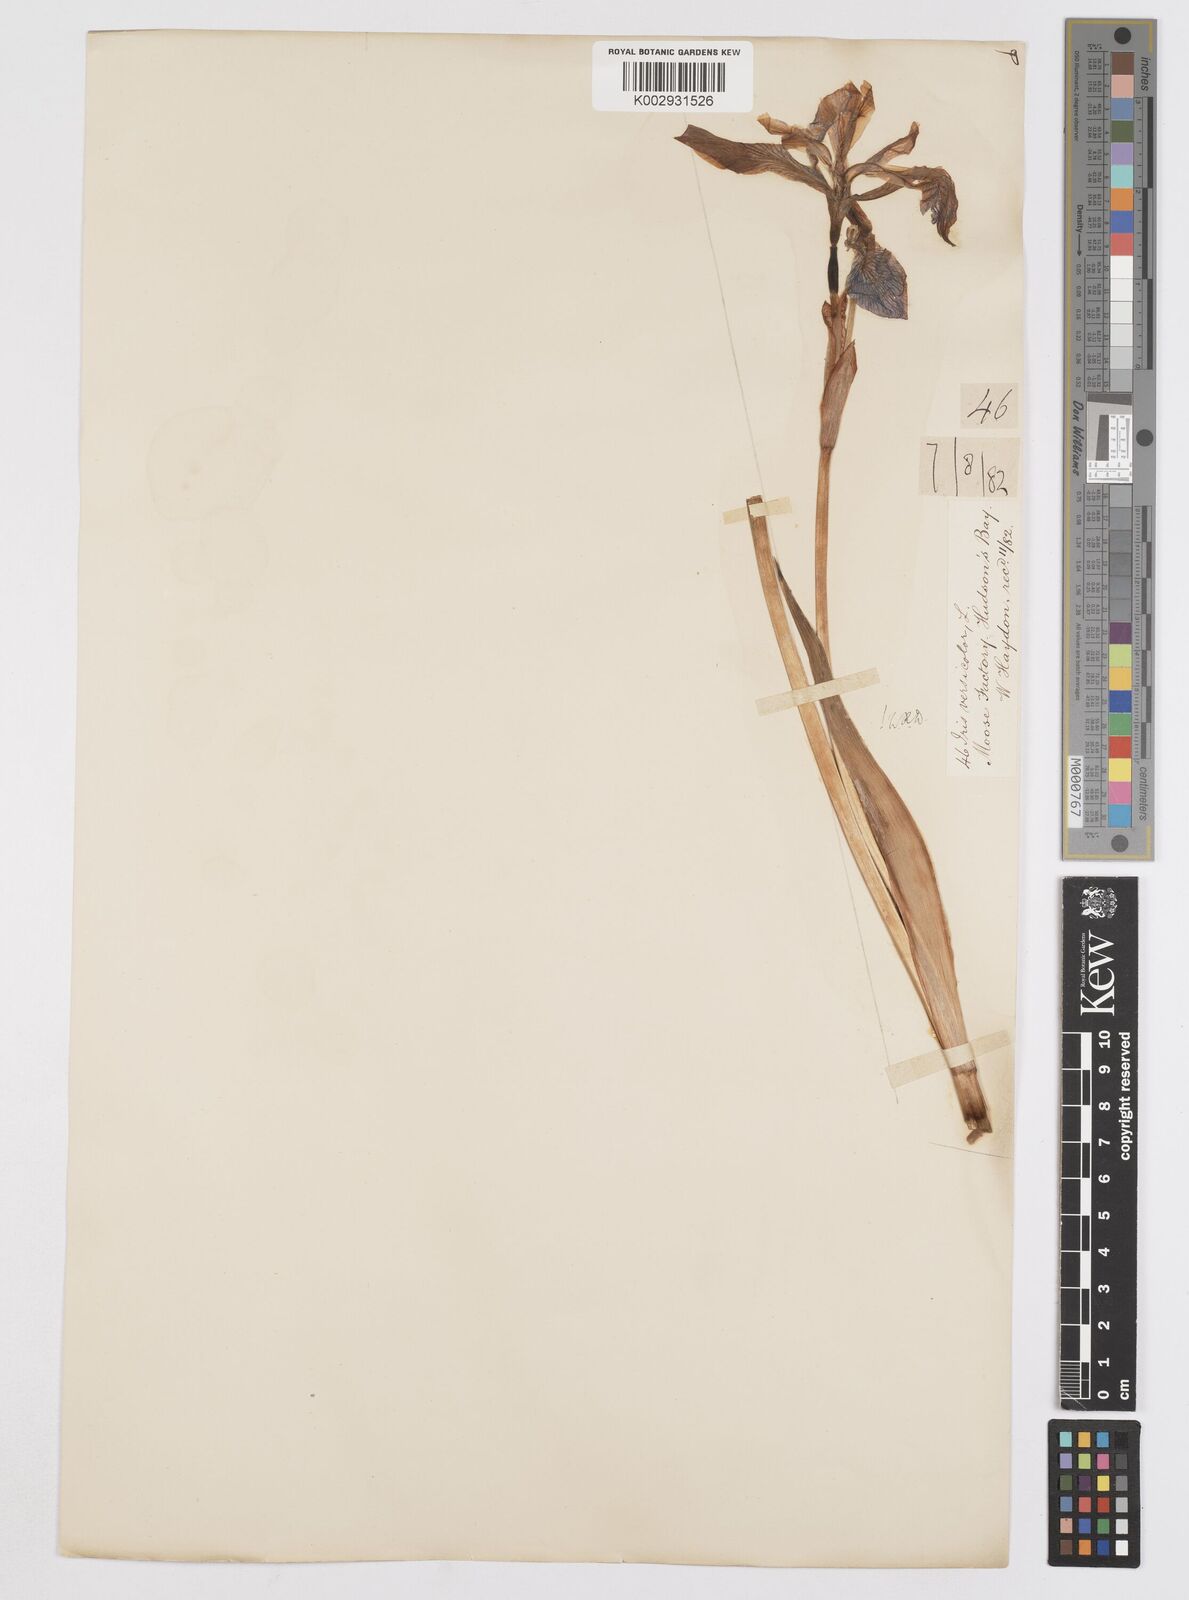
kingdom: Plantae
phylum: Tracheophyta
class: Liliopsida
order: Asparagales
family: Iridaceae
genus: Iris
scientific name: Iris versicolor
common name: Purple iris
